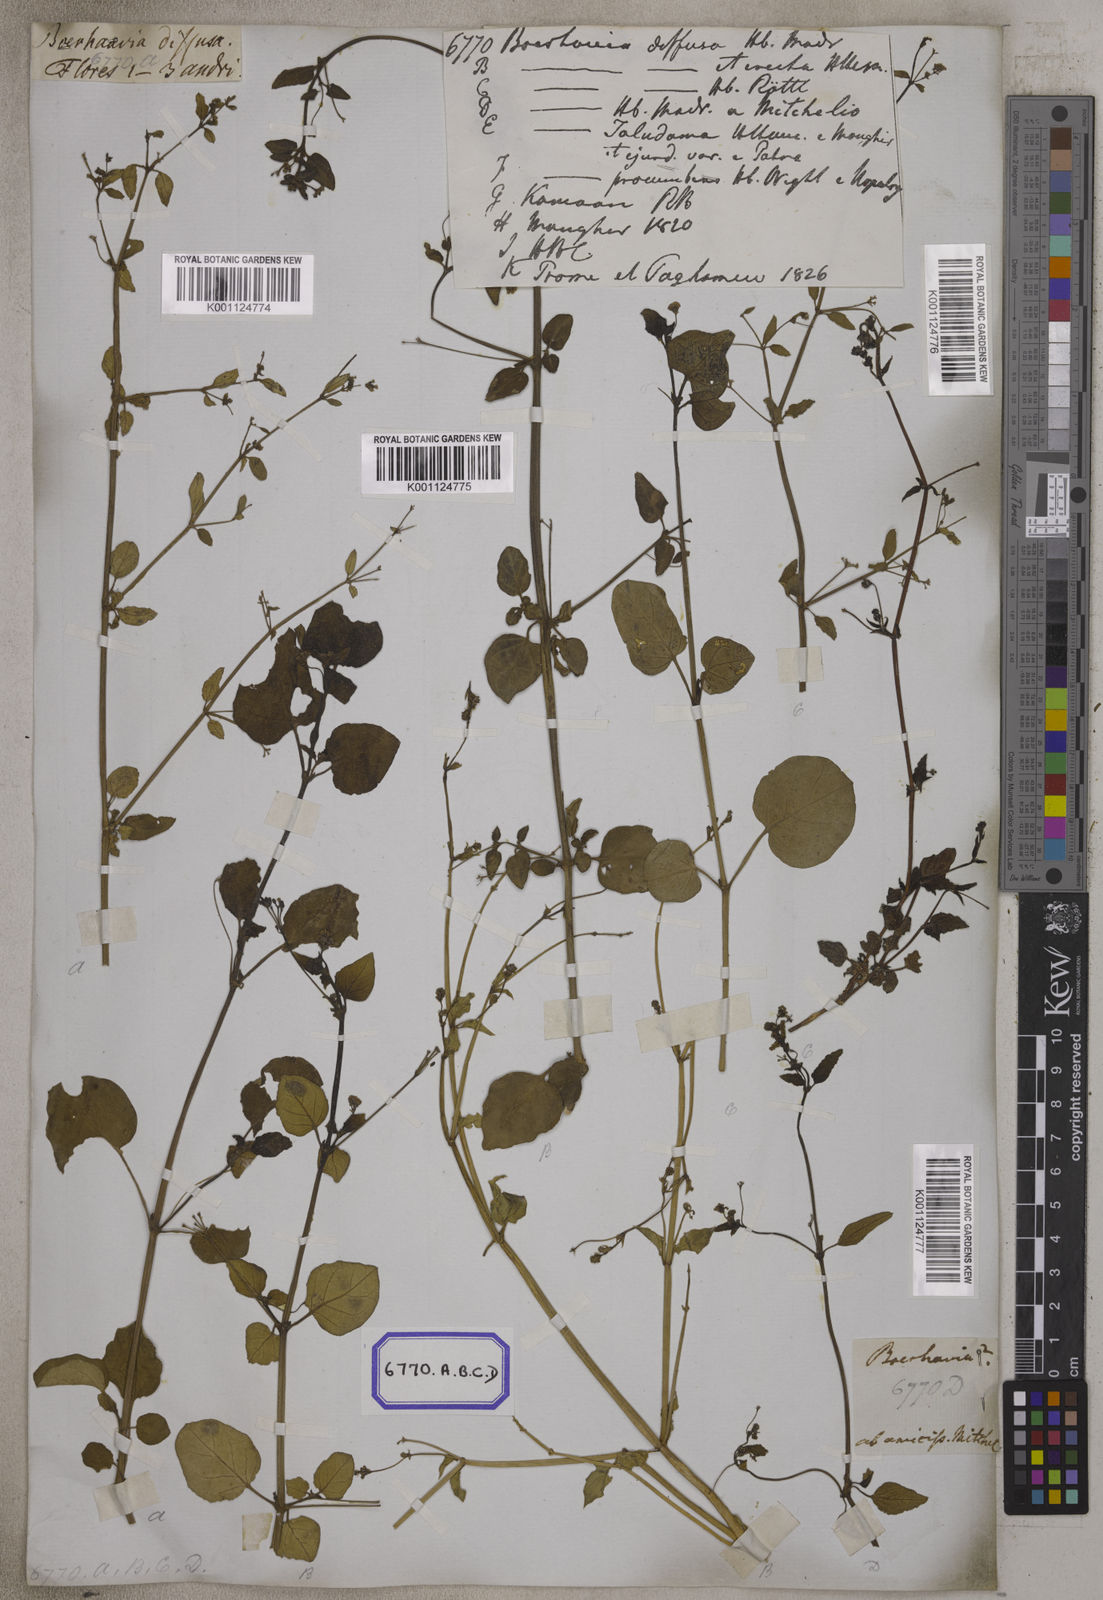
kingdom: Plantae
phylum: Tracheophyta
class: Magnoliopsida
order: Caryophyllales
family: Nyctaginaceae
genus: Boerhavia
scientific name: Boerhavia diffusa
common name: Red spiderling
